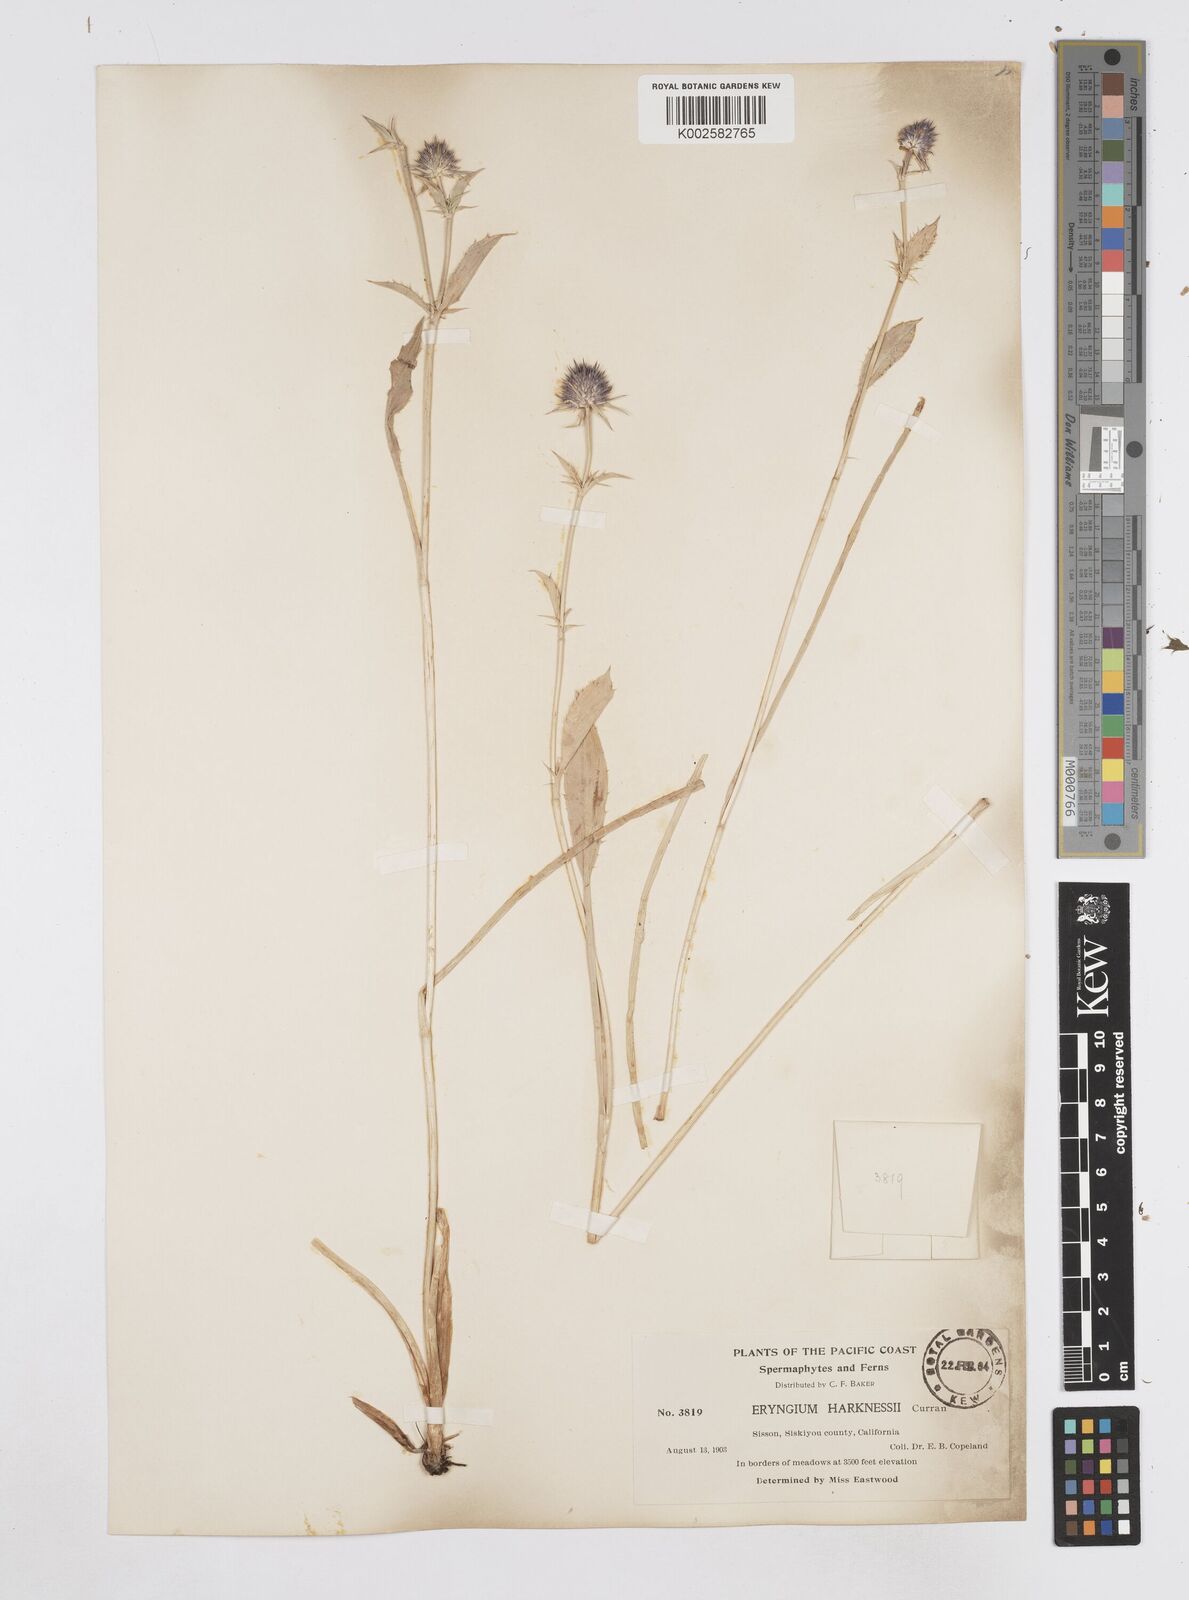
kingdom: Plantae
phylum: Tracheophyta
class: Magnoliopsida
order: Apiales
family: Apiaceae
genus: Eryngium
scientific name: Eryngium articulatum
